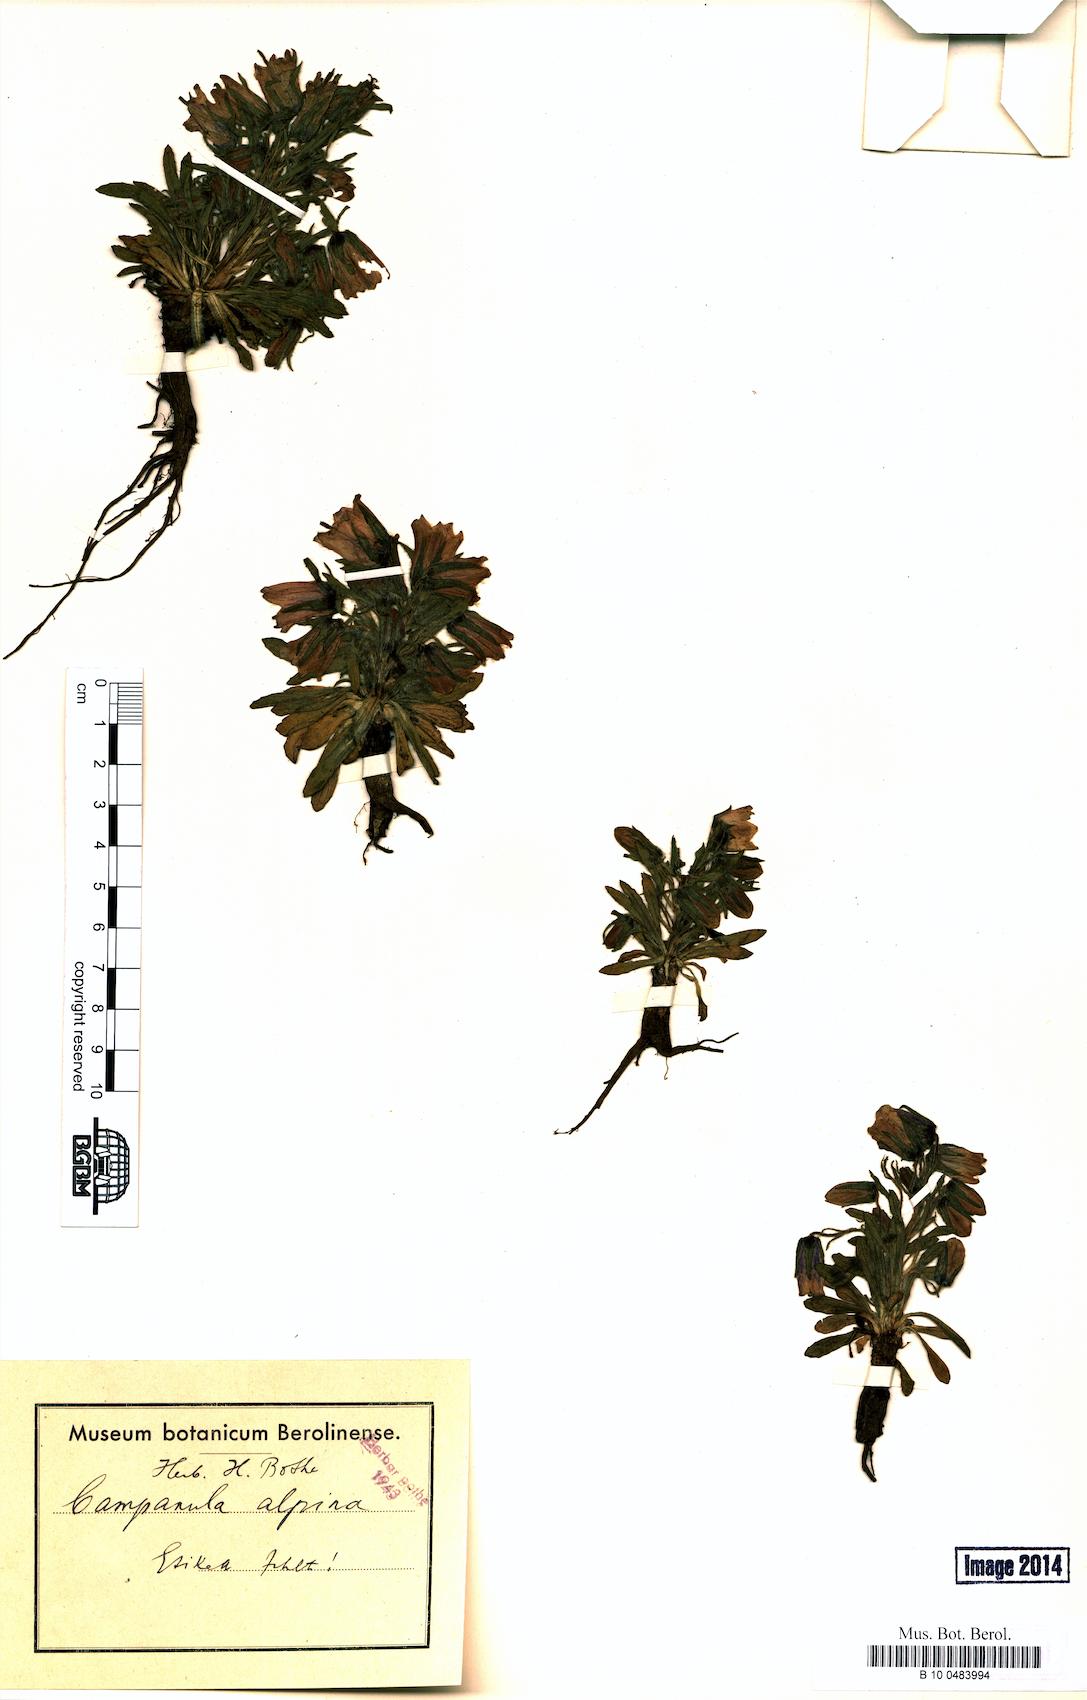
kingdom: Plantae
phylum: Tracheophyta
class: Magnoliopsida
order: Asterales
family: Campanulaceae
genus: Campanula
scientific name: Campanula alpina
